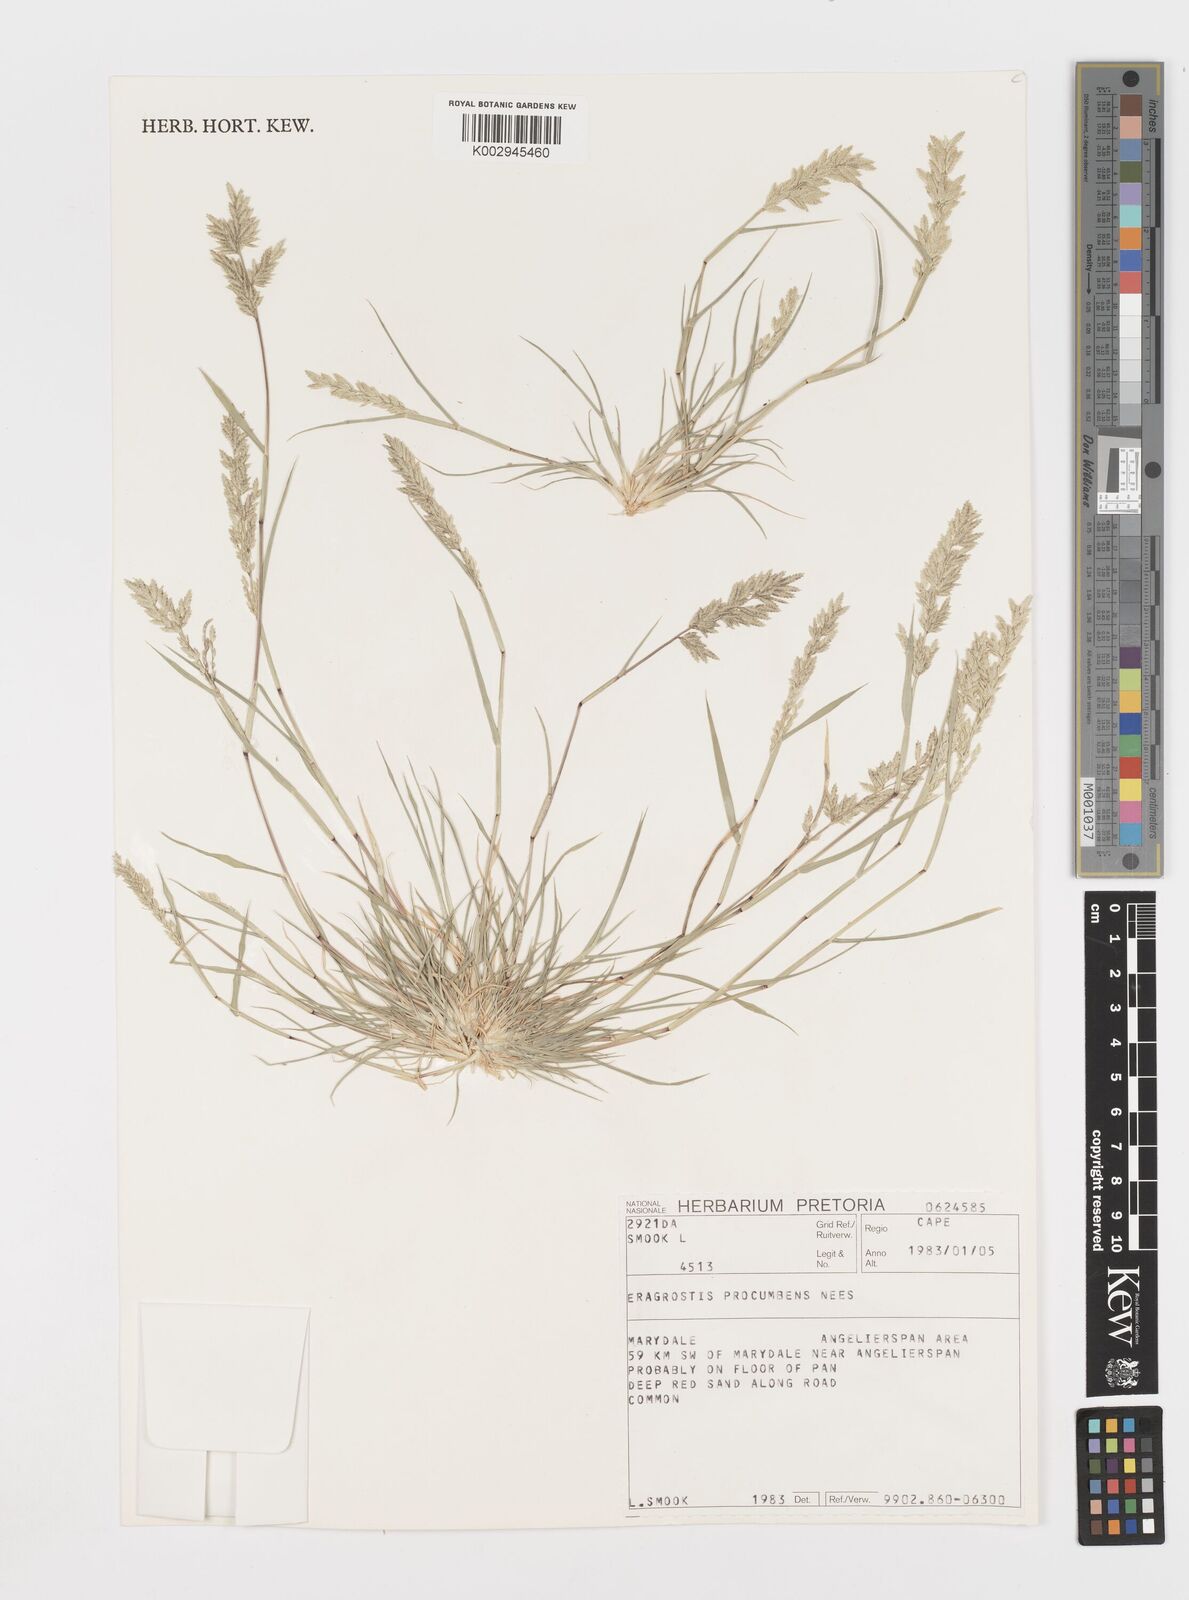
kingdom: Plantae
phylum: Tracheophyta
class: Liliopsida
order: Poales
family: Poaceae
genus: Eragrostis
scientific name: Eragrostis procumbens
